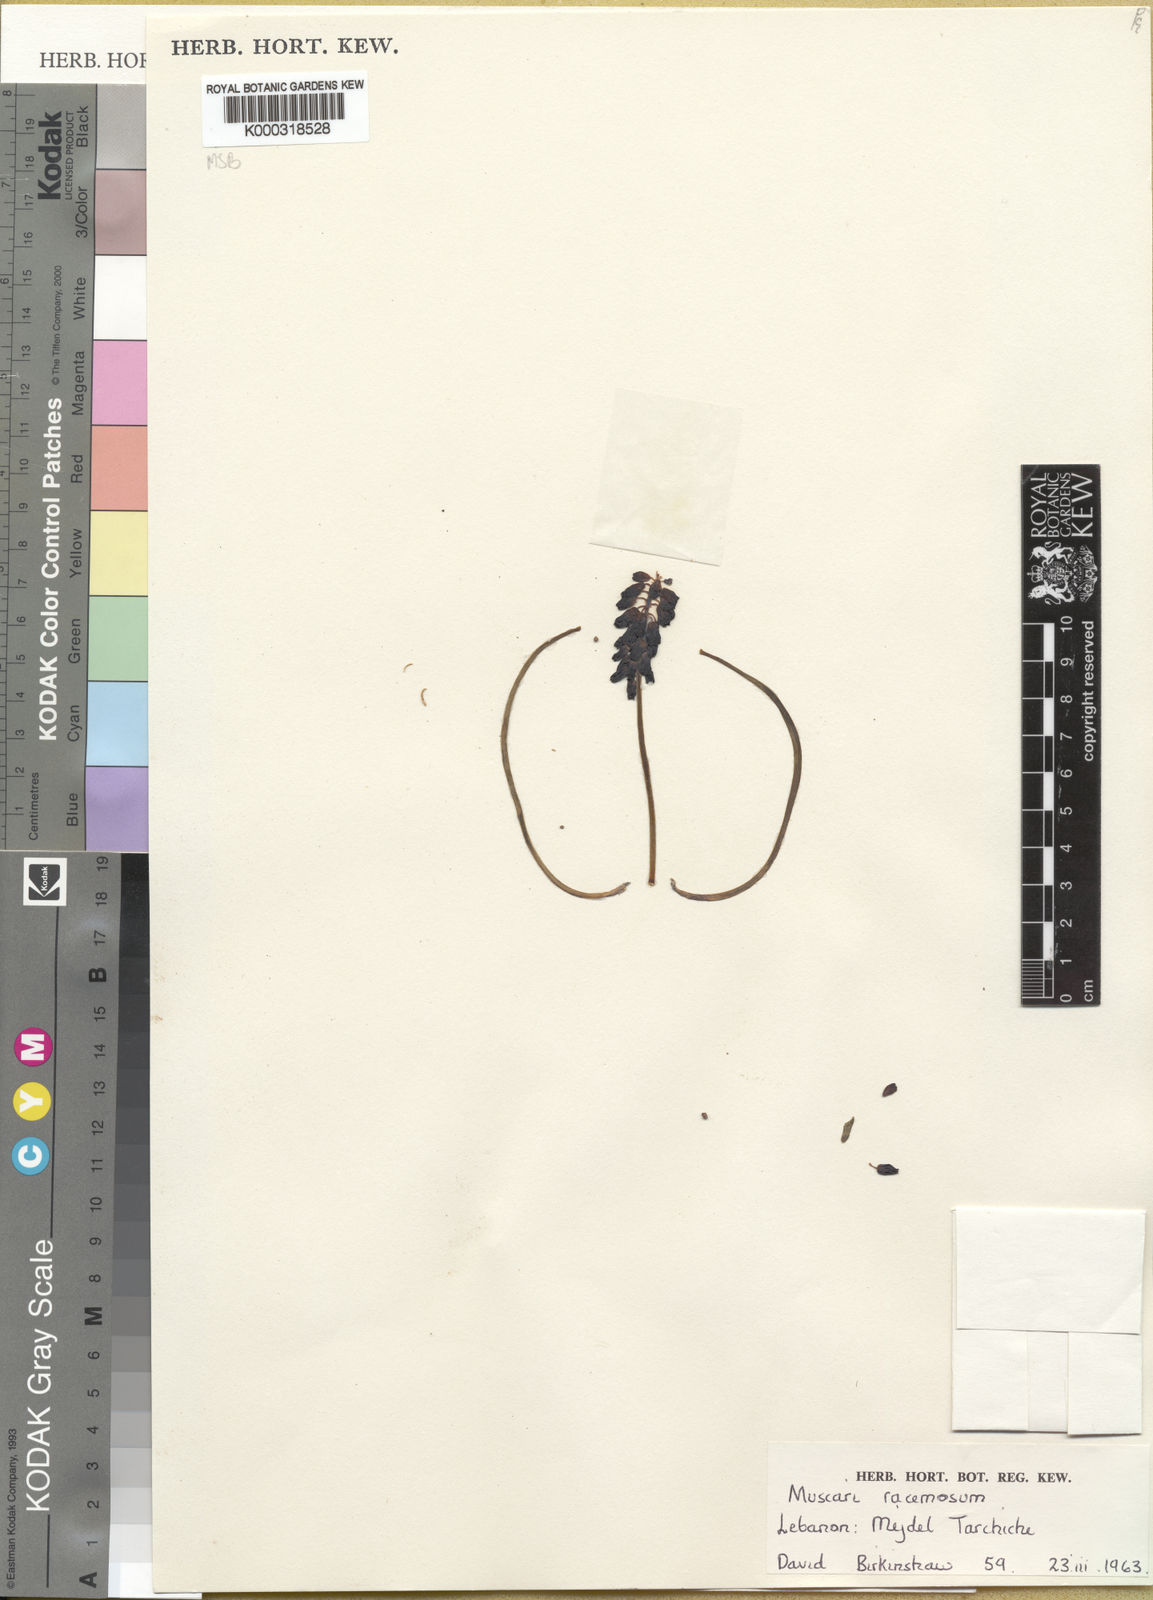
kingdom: Plantae
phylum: Tracheophyta
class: Liliopsida
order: Asparagales
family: Asparagaceae
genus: Muscari
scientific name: Muscari
